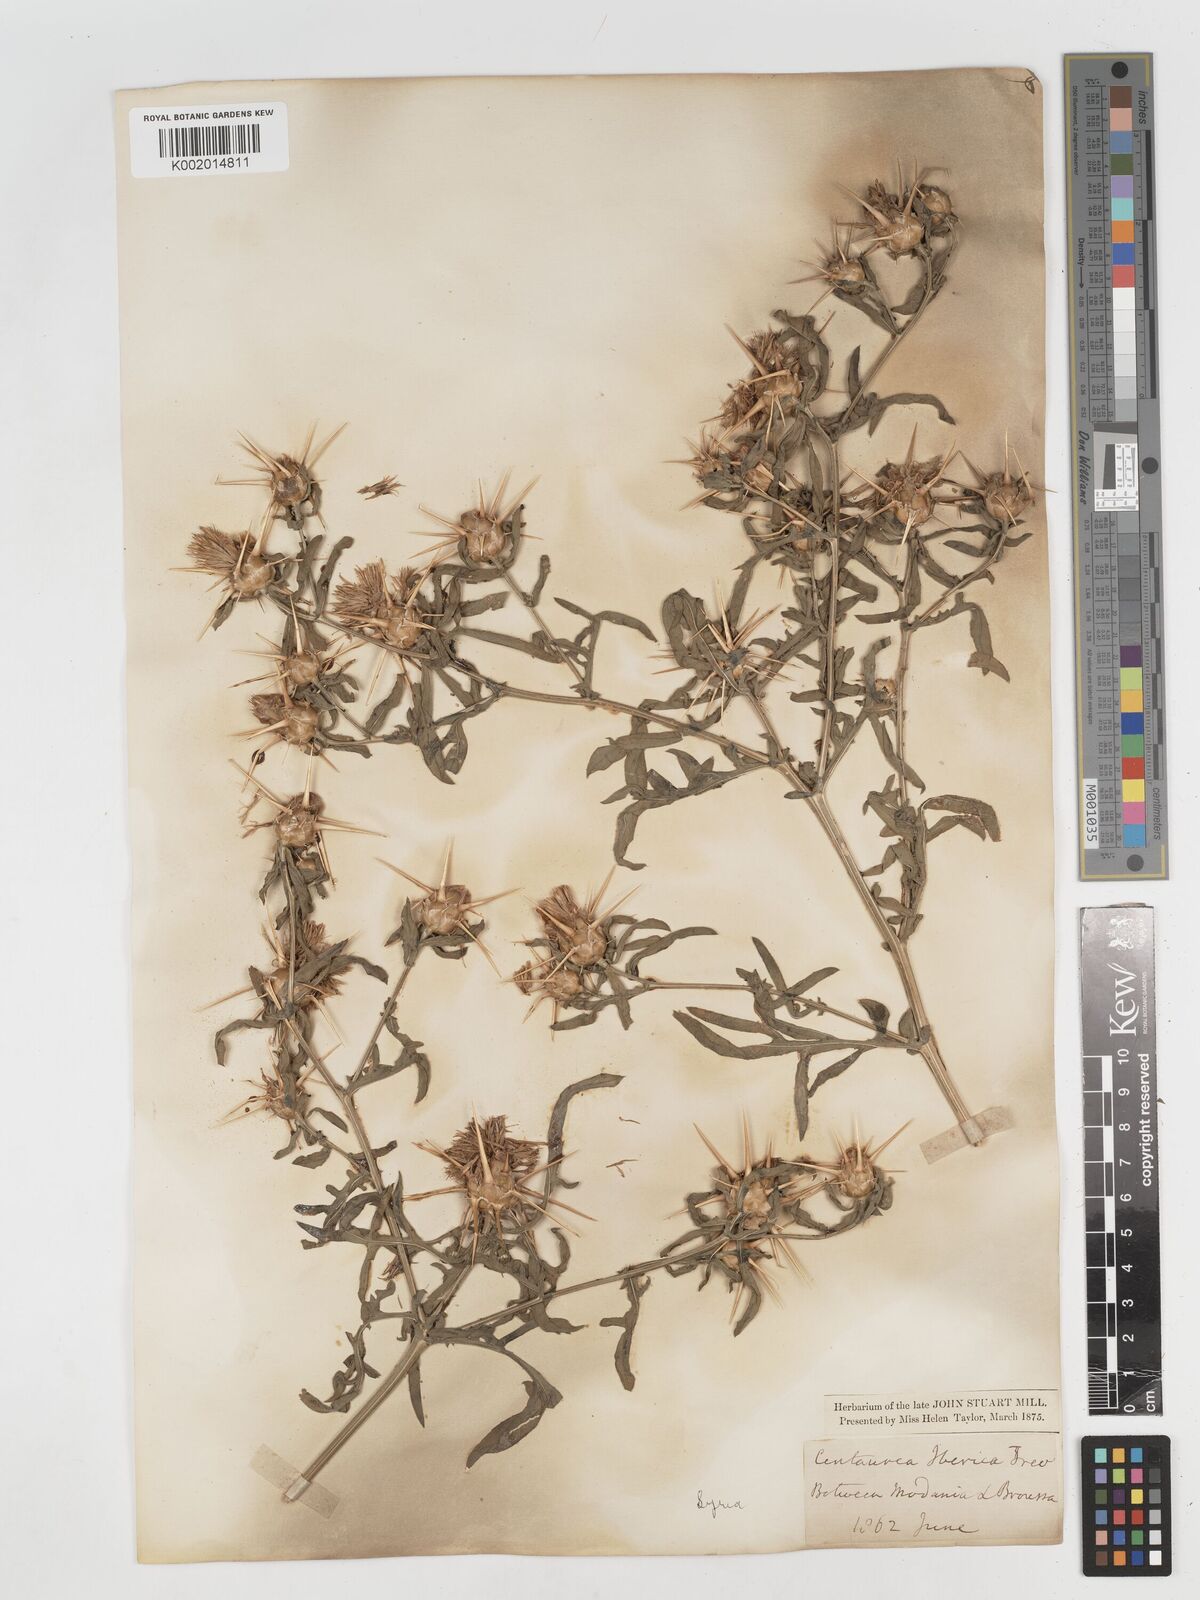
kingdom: Plantae
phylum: Tracheophyta
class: Magnoliopsida
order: Asterales
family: Asteraceae
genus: Centaurea
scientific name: Centaurea iberica
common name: Iberian knapweed
